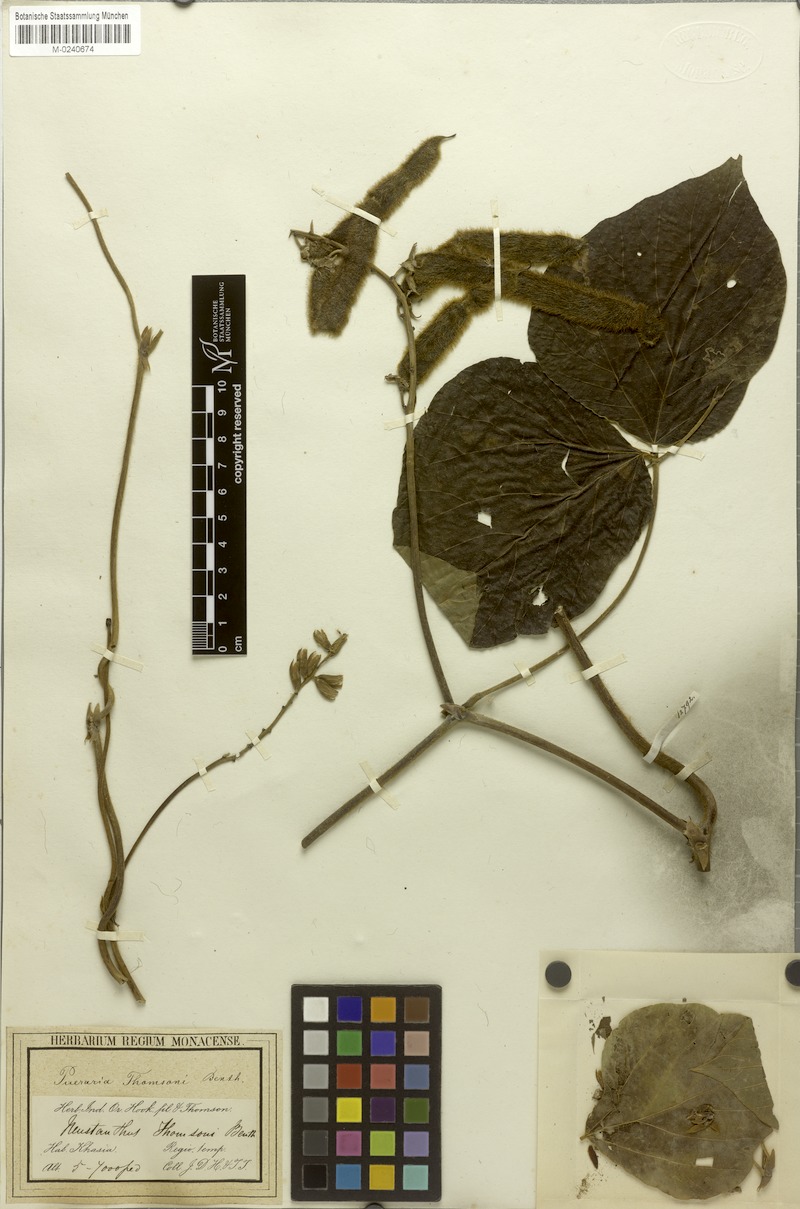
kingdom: Plantae
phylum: Tracheophyta
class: Magnoliopsida
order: Fabales
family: Fabaceae
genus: Pueraria
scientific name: Pueraria montana
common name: Kudzu
